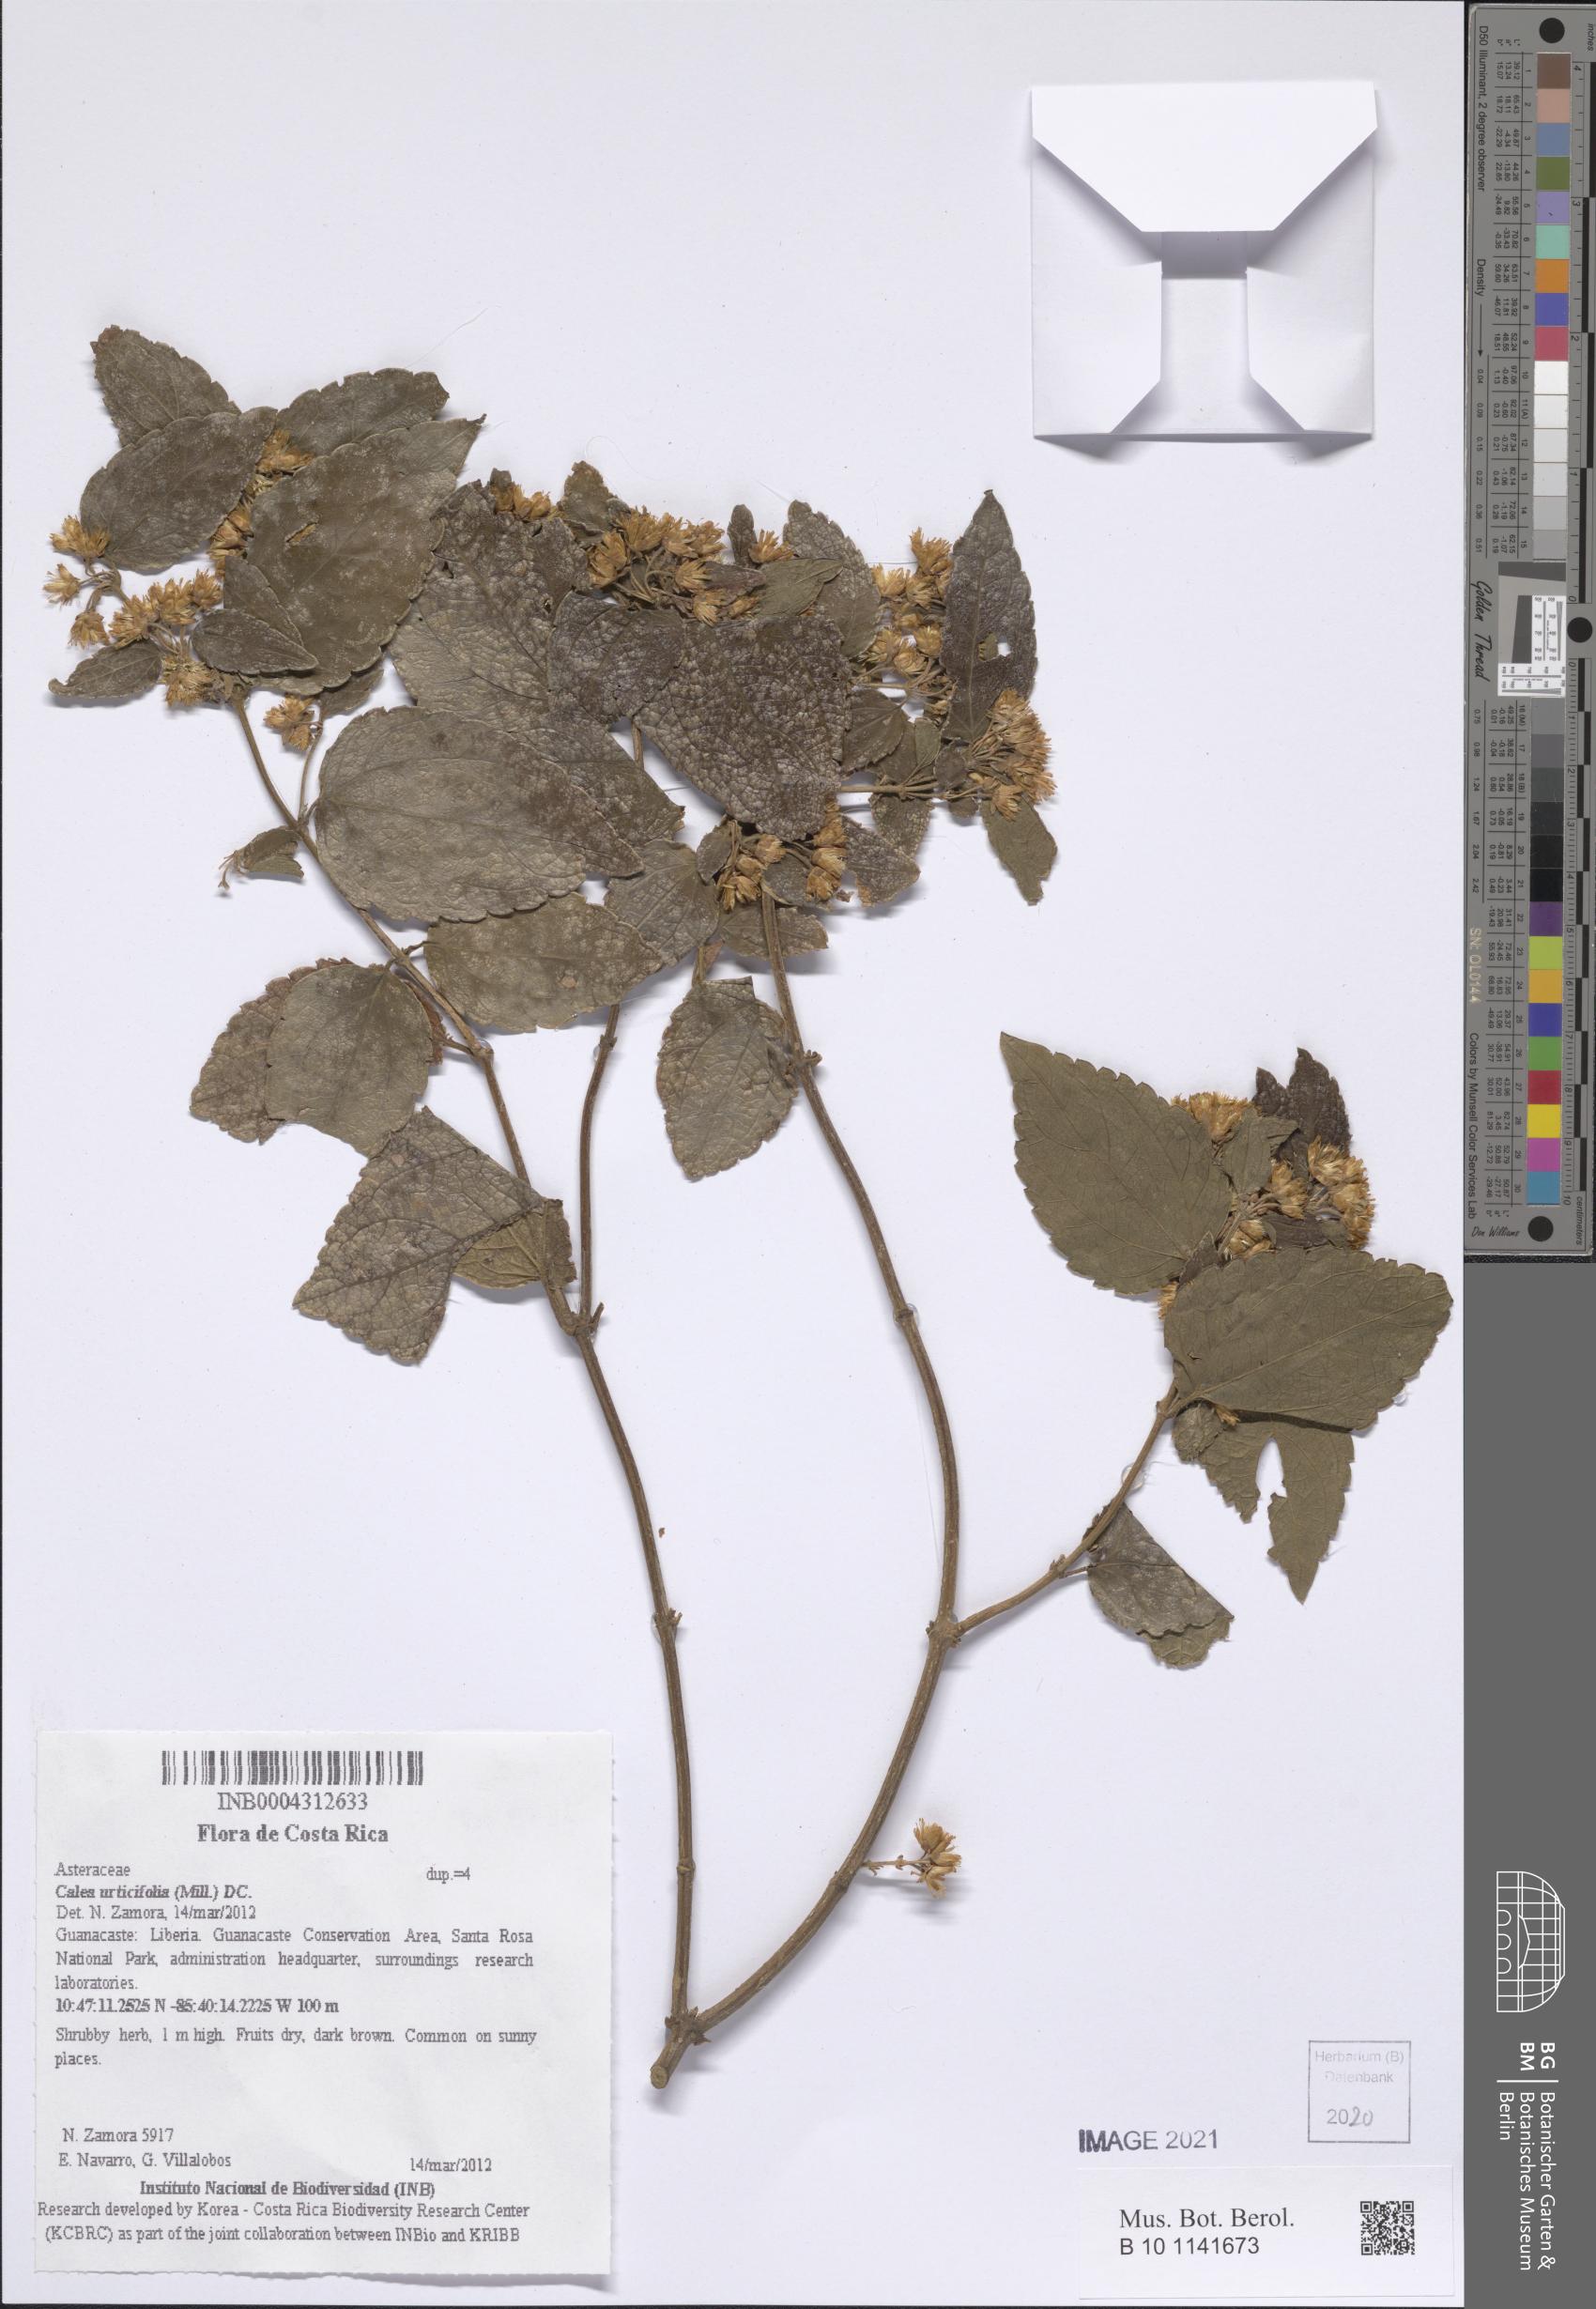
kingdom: Plantae
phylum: Tracheophyta
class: Magnoliopsida
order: Asterales
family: Asteraceae
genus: Calea
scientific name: Calea urticifolia
